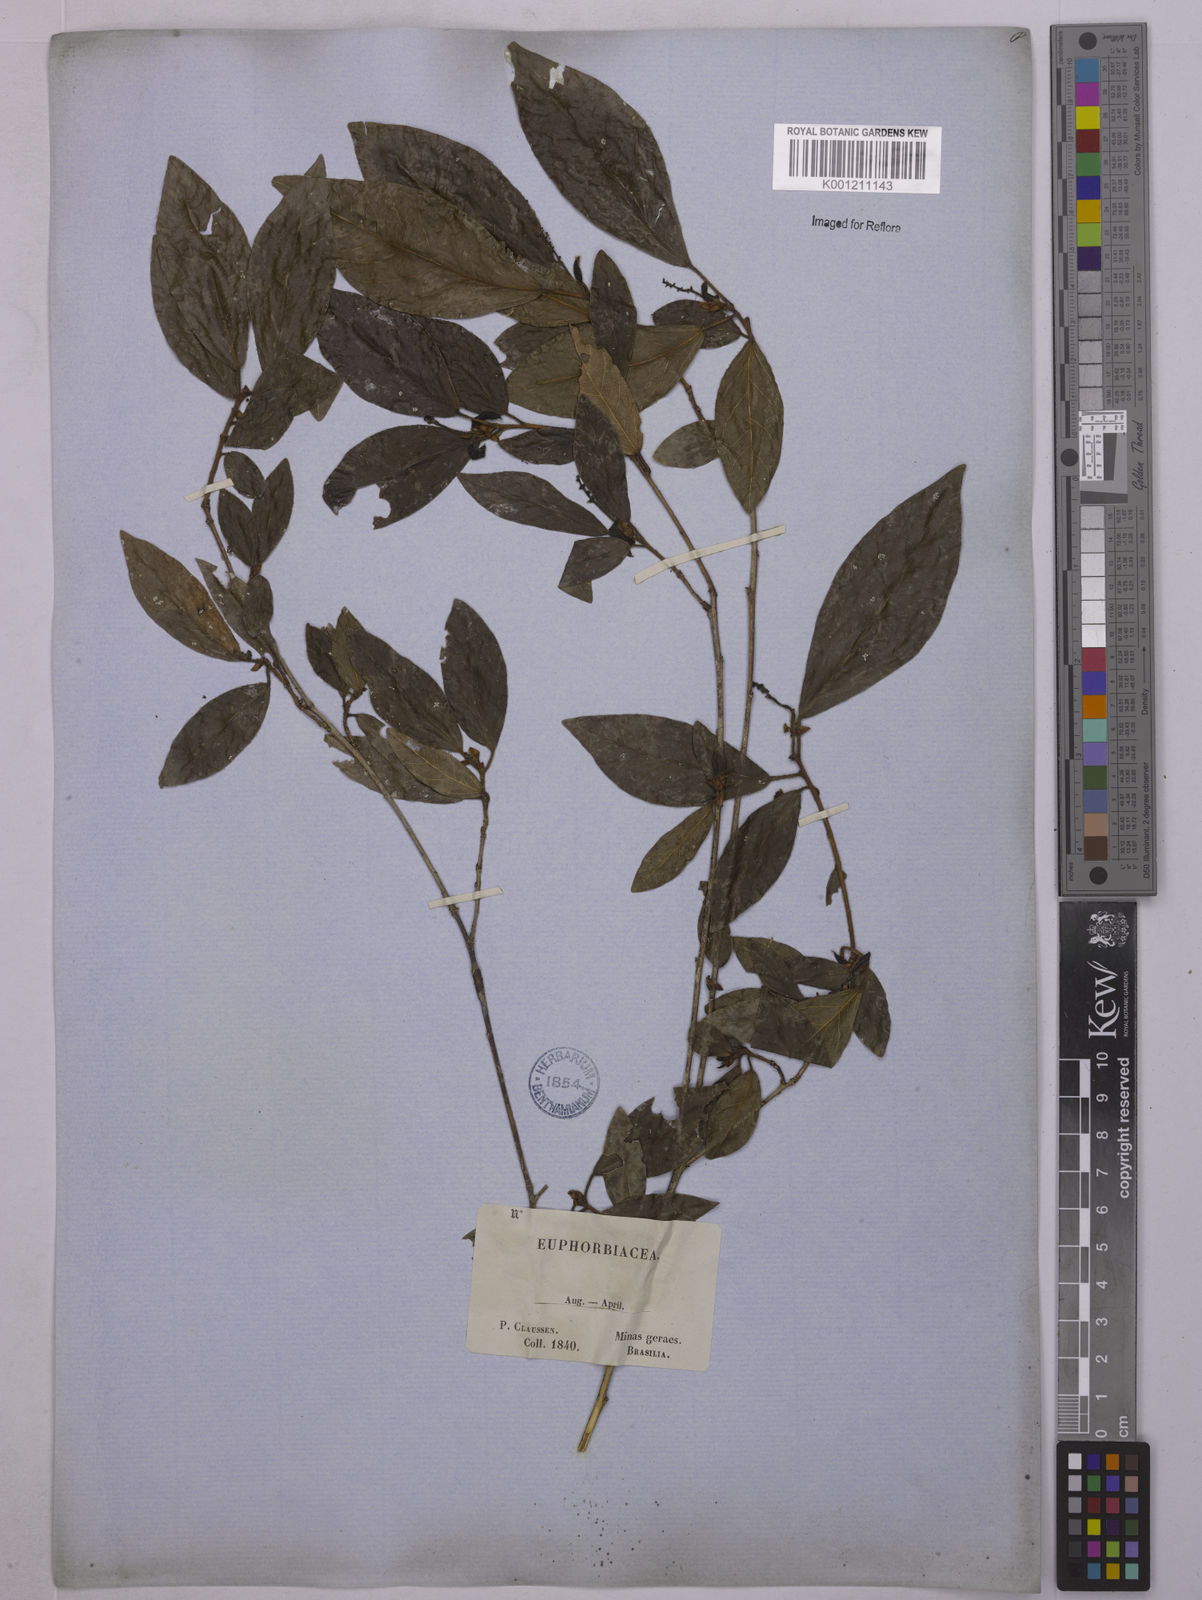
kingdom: Plantae
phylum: Tracheophyta
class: Magnoliopsida
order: Malpighiales
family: Euphorbiaceae
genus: Actinostemon
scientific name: Actinostemon verticillatus
